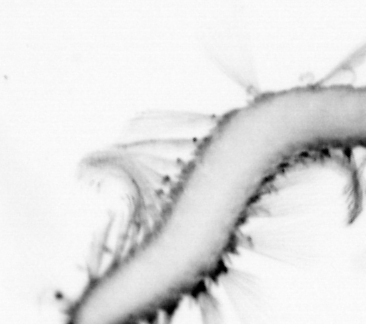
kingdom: Animalia
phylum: Annelida
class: Polychaeta
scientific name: Polychaeta
